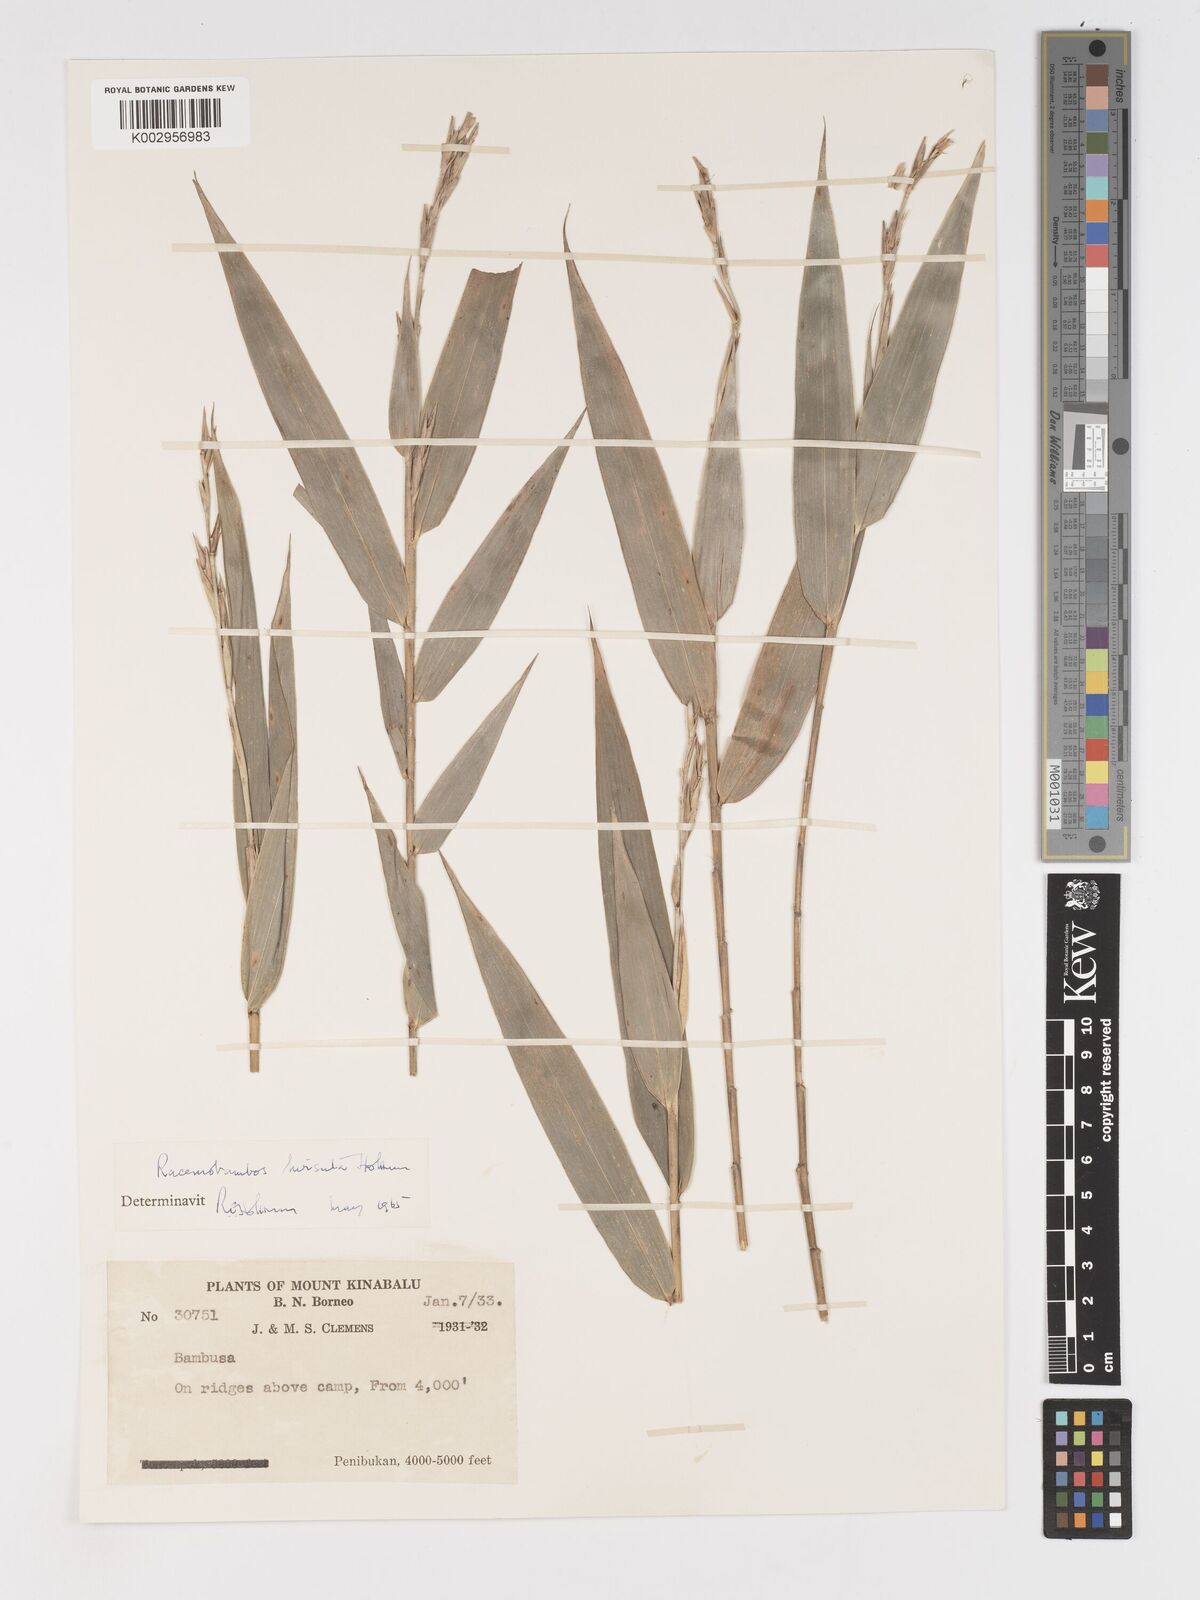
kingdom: Plantae
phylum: Tracheophyta
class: Liliopsida
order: Poales
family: Poaceae
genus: Racemobambos
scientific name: Racemobambos hirsuta
